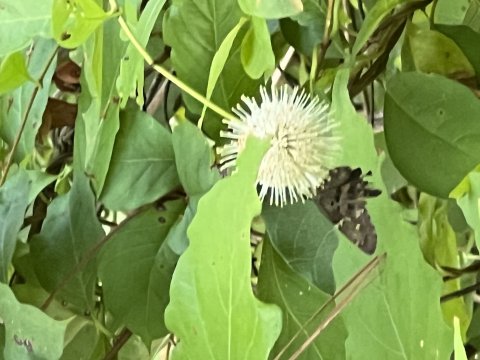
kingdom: Animalia
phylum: Arthropoda
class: Insecta
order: Lepidoptera
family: Hesperiidae
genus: Urbanus
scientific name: Urbanus proteus
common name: Long-tailed Skipper
